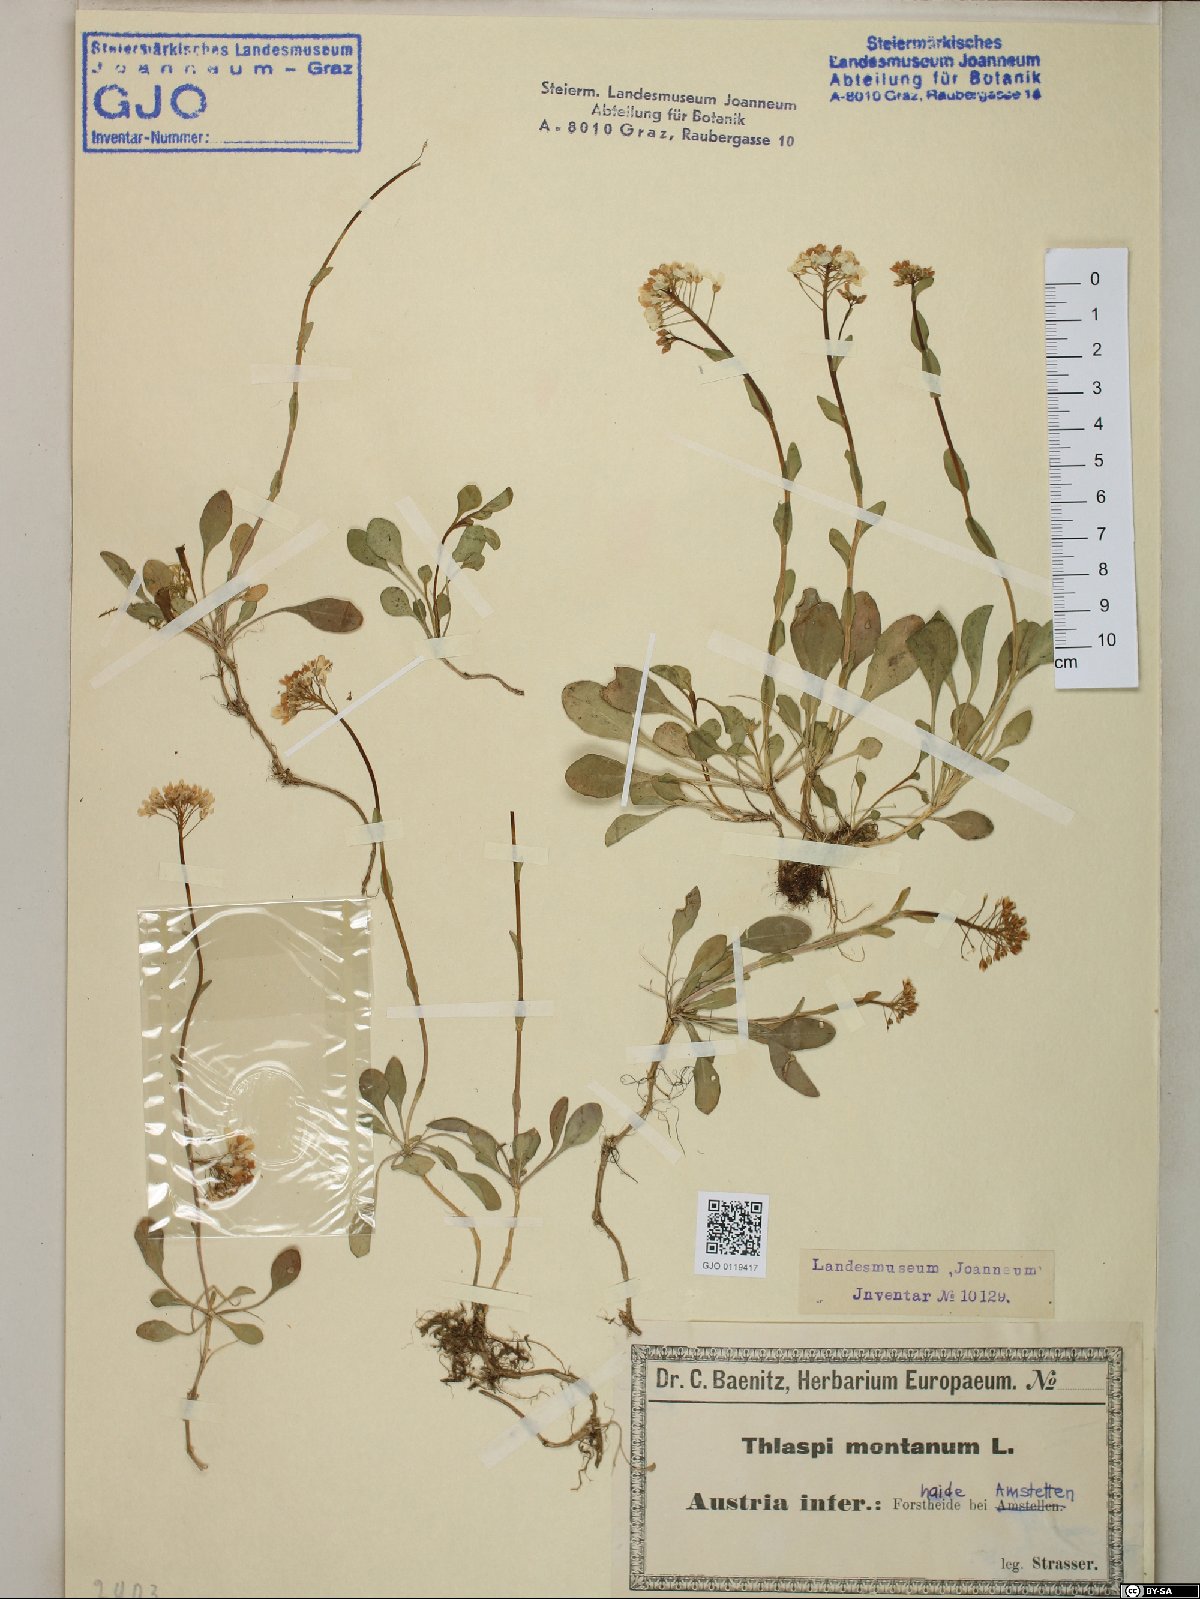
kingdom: Plantae
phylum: Tracheophyta
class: Magnoliopsida
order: Brassicales
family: Brassicaceae
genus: Noccaea
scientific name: Noccaea montana
